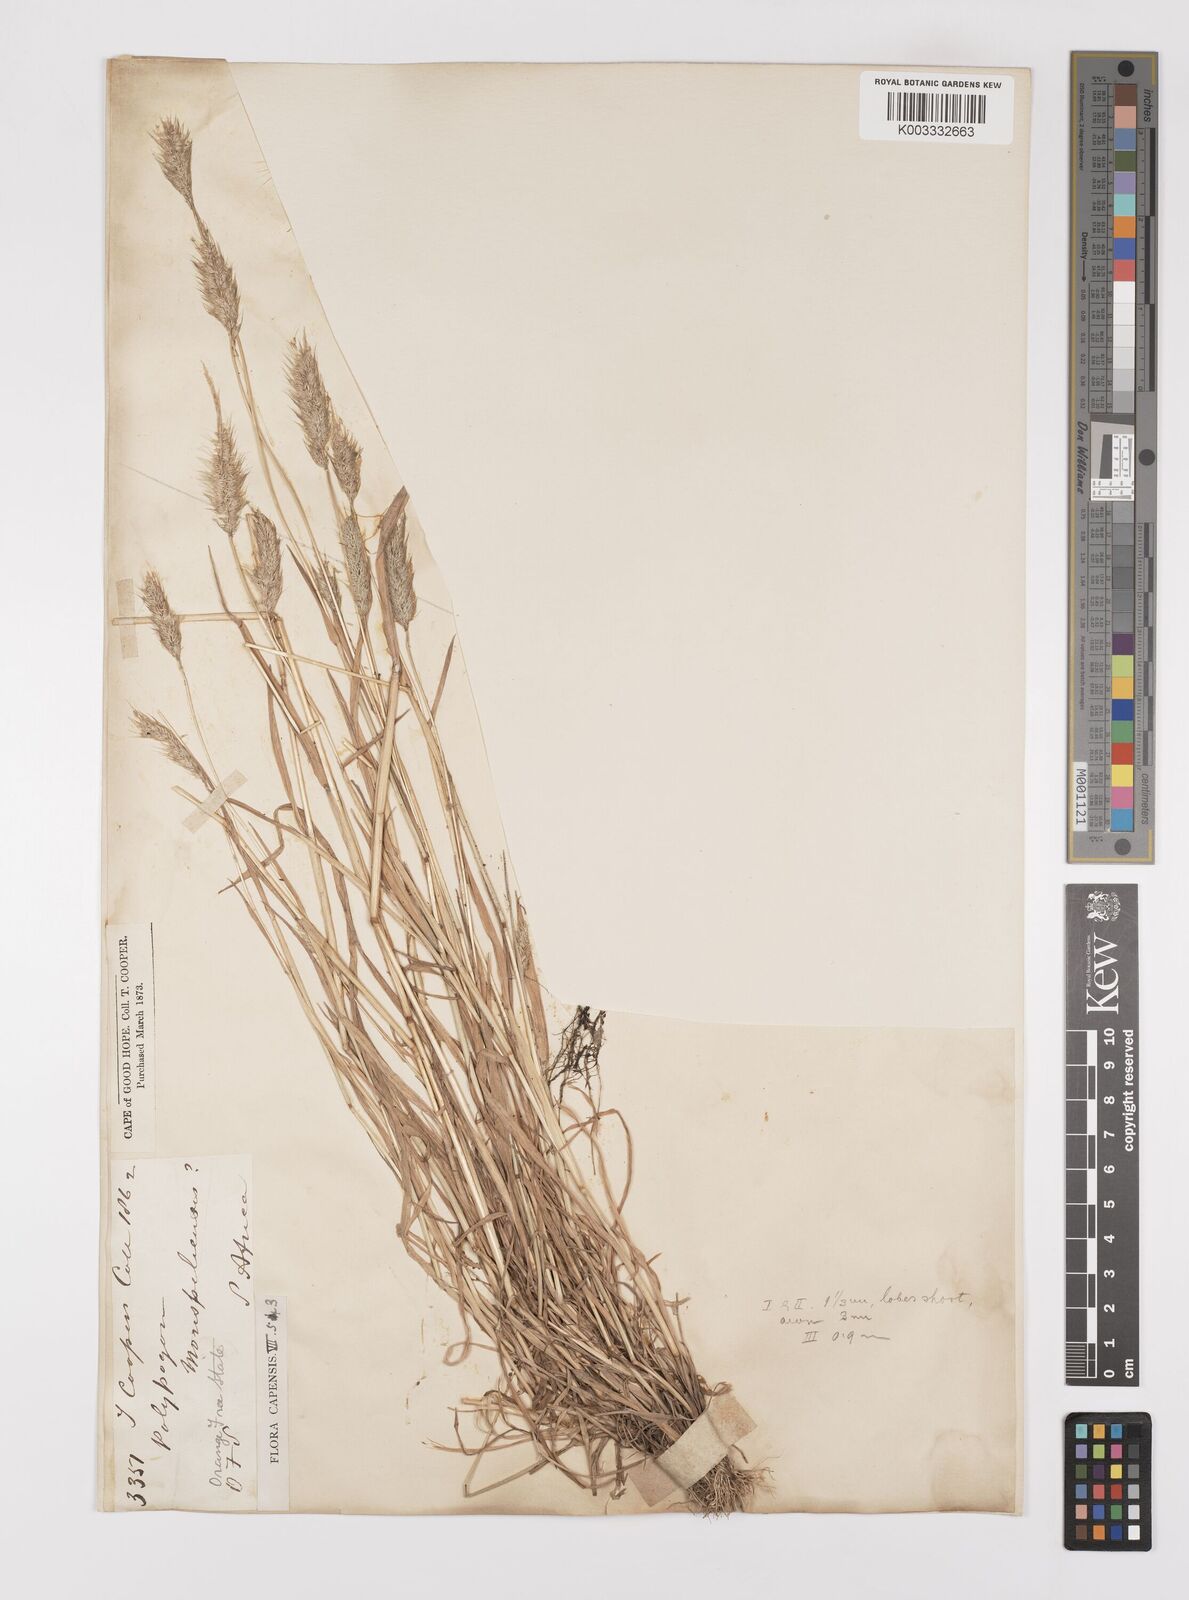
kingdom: Plantae
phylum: Tracheophyta
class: Liliopsida
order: Poales
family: Poaceae
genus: Polypogon
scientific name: Polypogon monspeliensis
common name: Annual rabbitsfoot grass
